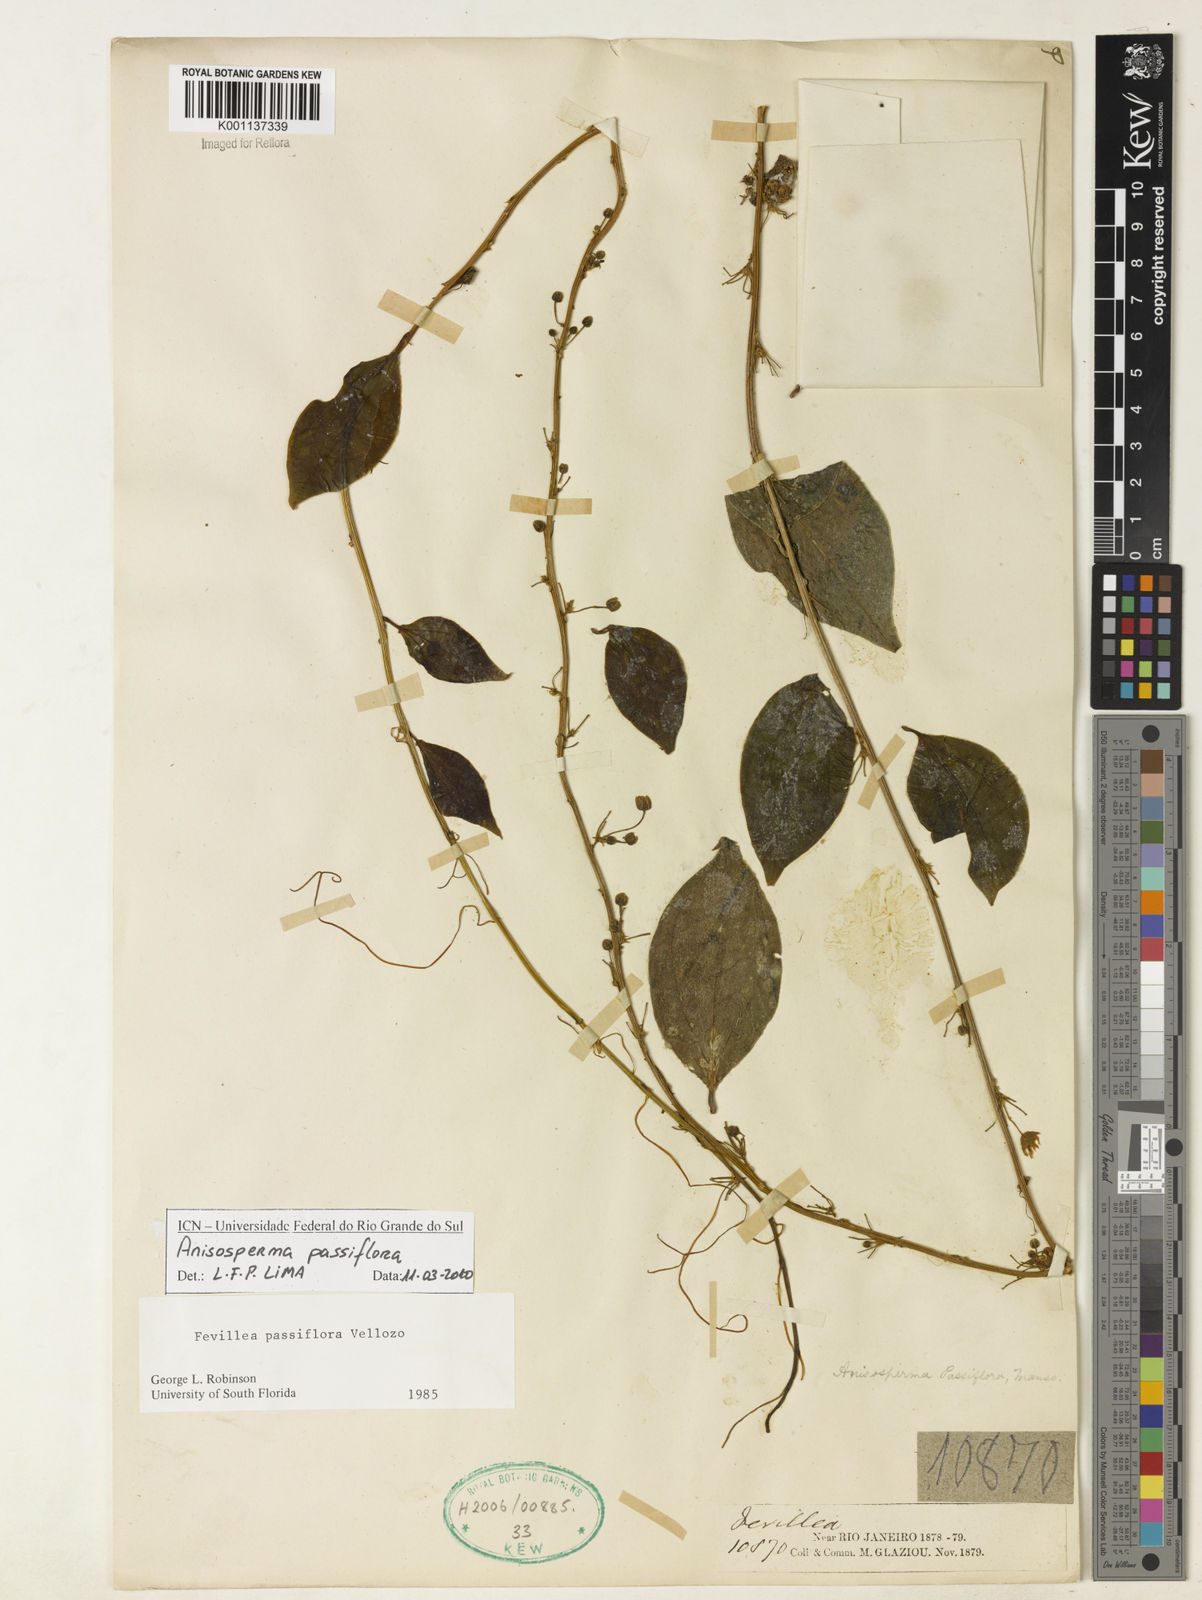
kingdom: Plantae
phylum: Tracheophyta
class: Magnoliopsida
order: Cucurbitales
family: Cucurbitaceae
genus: Anisosperma
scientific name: Anisosperma passiflora
